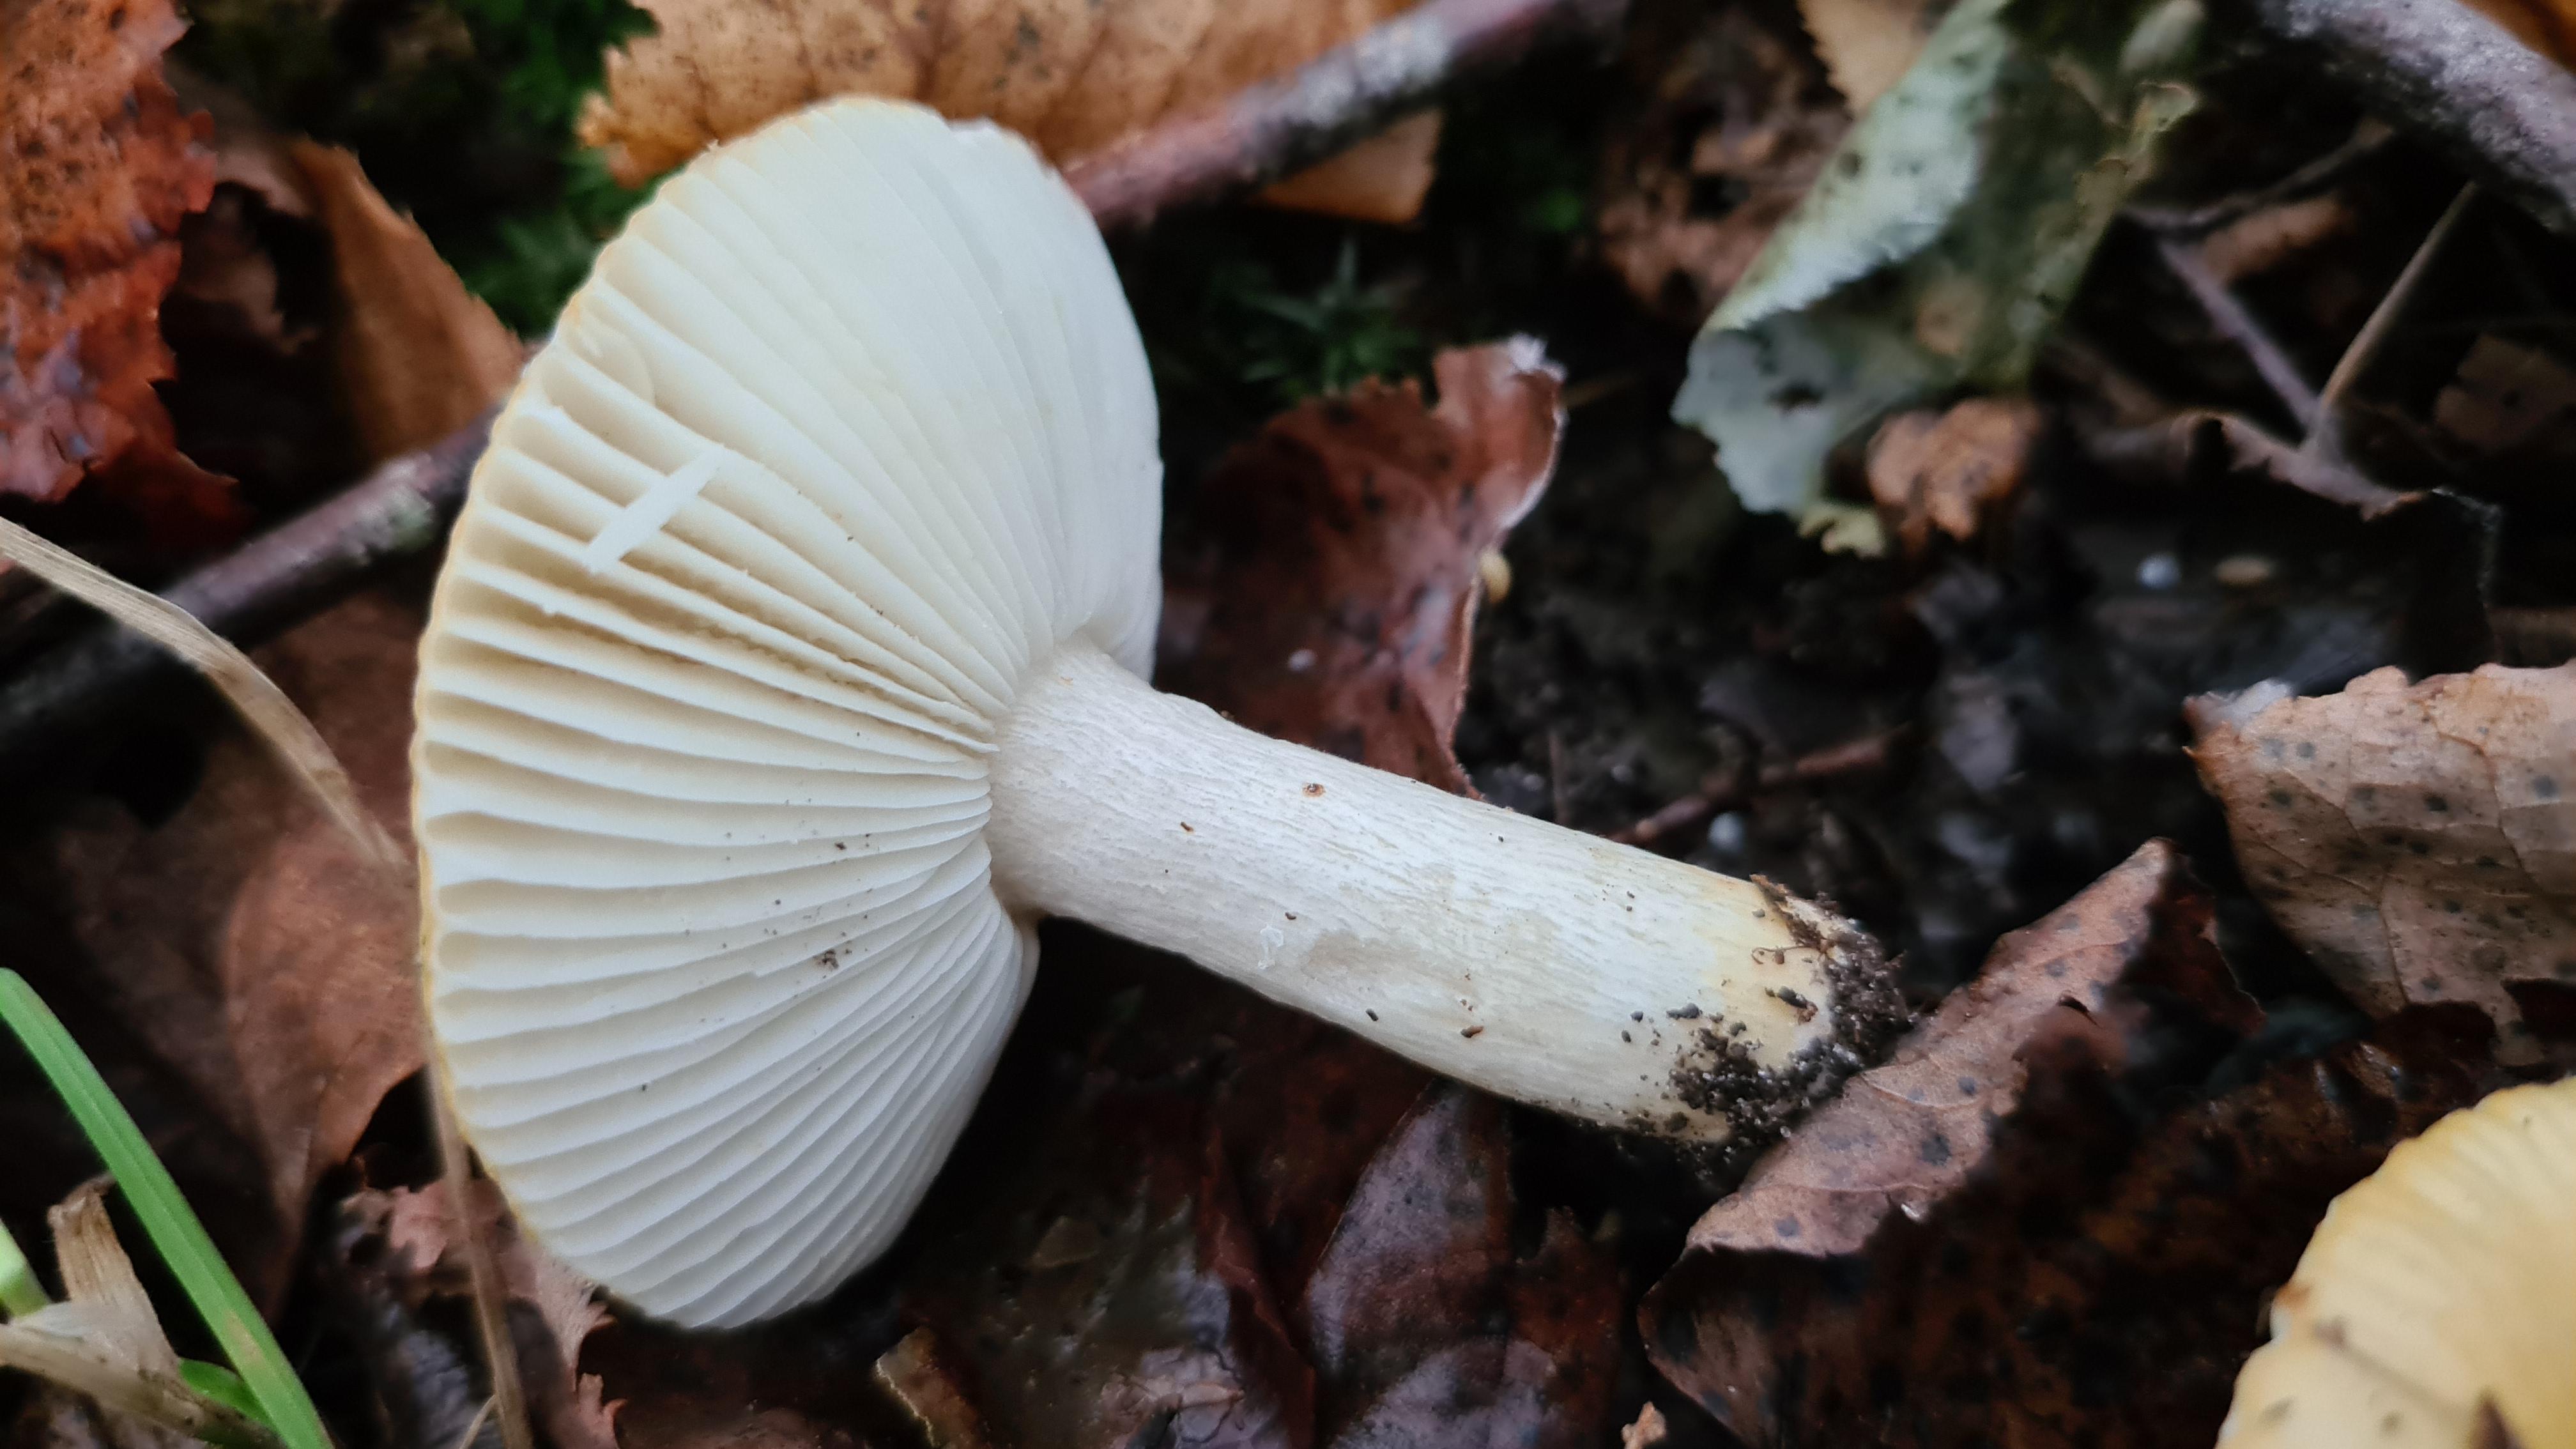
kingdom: Fungi
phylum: Basidiomycota
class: Agaricomycetes
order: Russulales
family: Russulaceae
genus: Russula
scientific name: Russula ochroleuca
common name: okkergul skørhat
